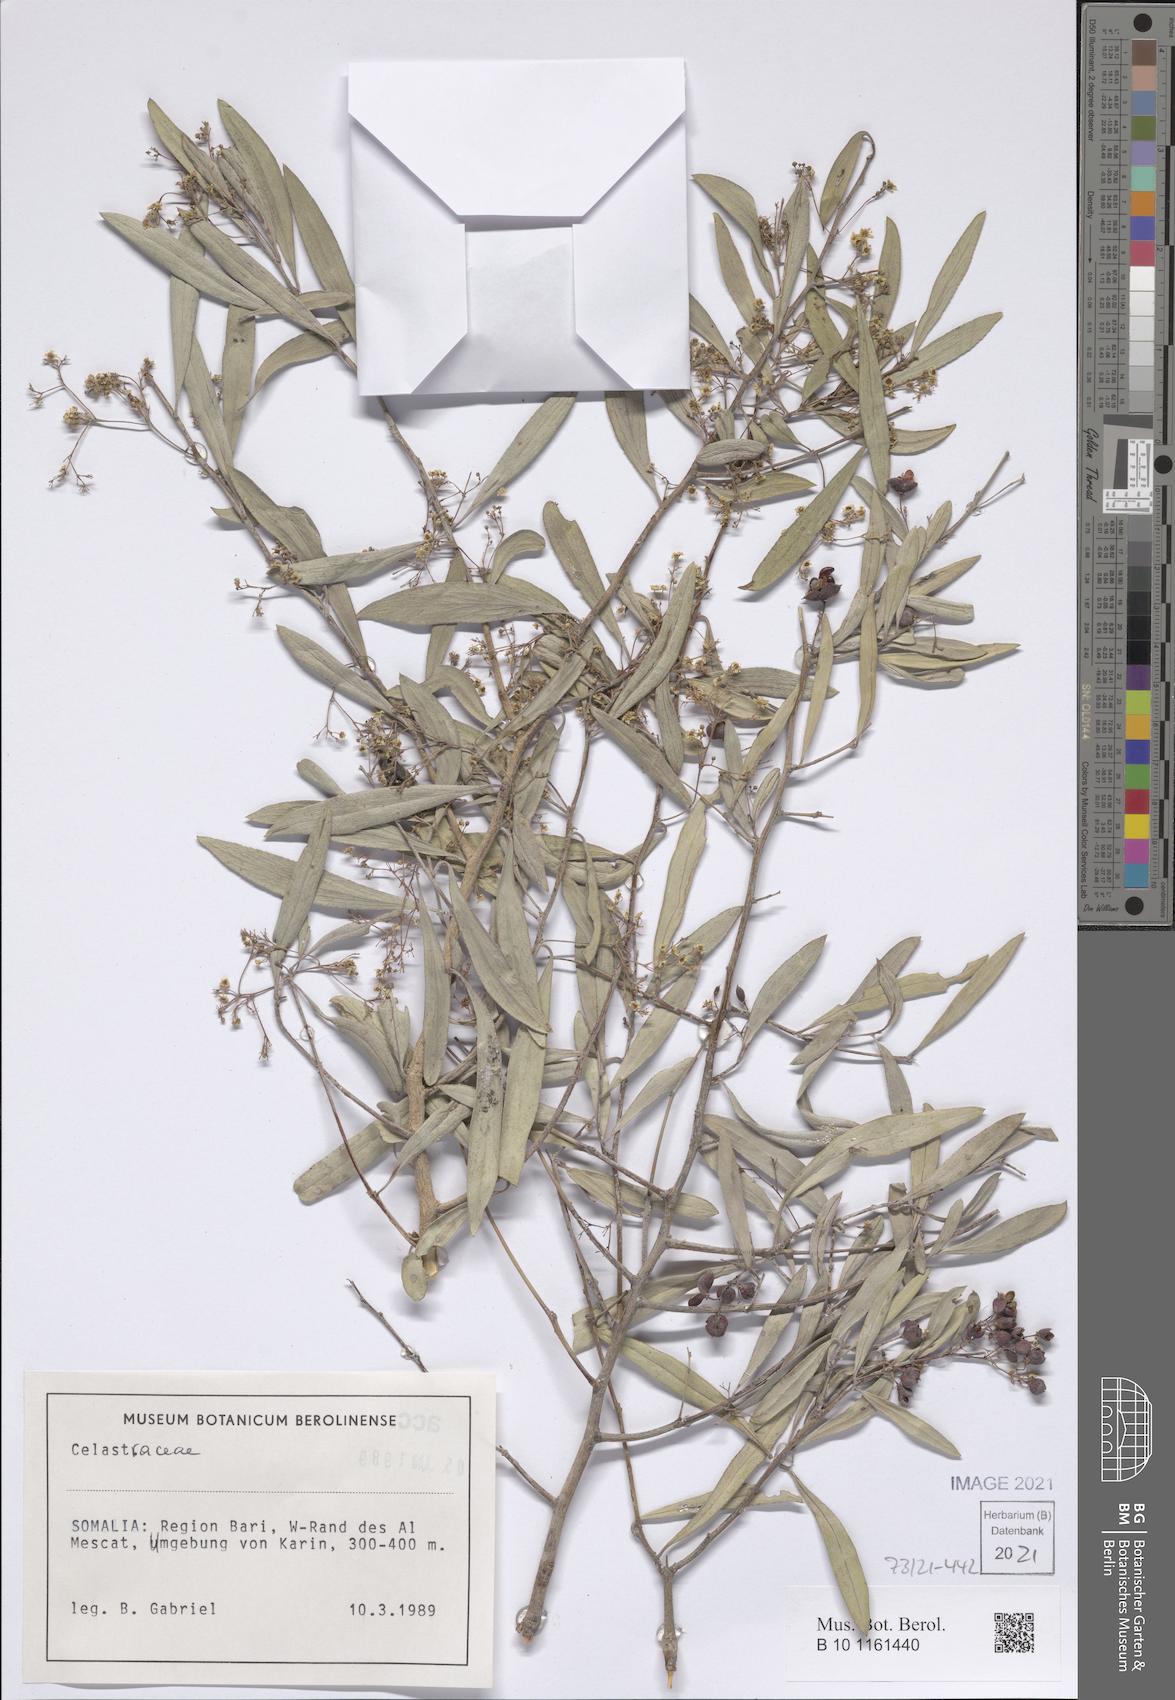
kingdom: Plantae
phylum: Tracheophyta
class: Magnoliopsida
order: Celastrales
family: Celastraceae
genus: Gymnosporia
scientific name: Gymnosporia punctata
